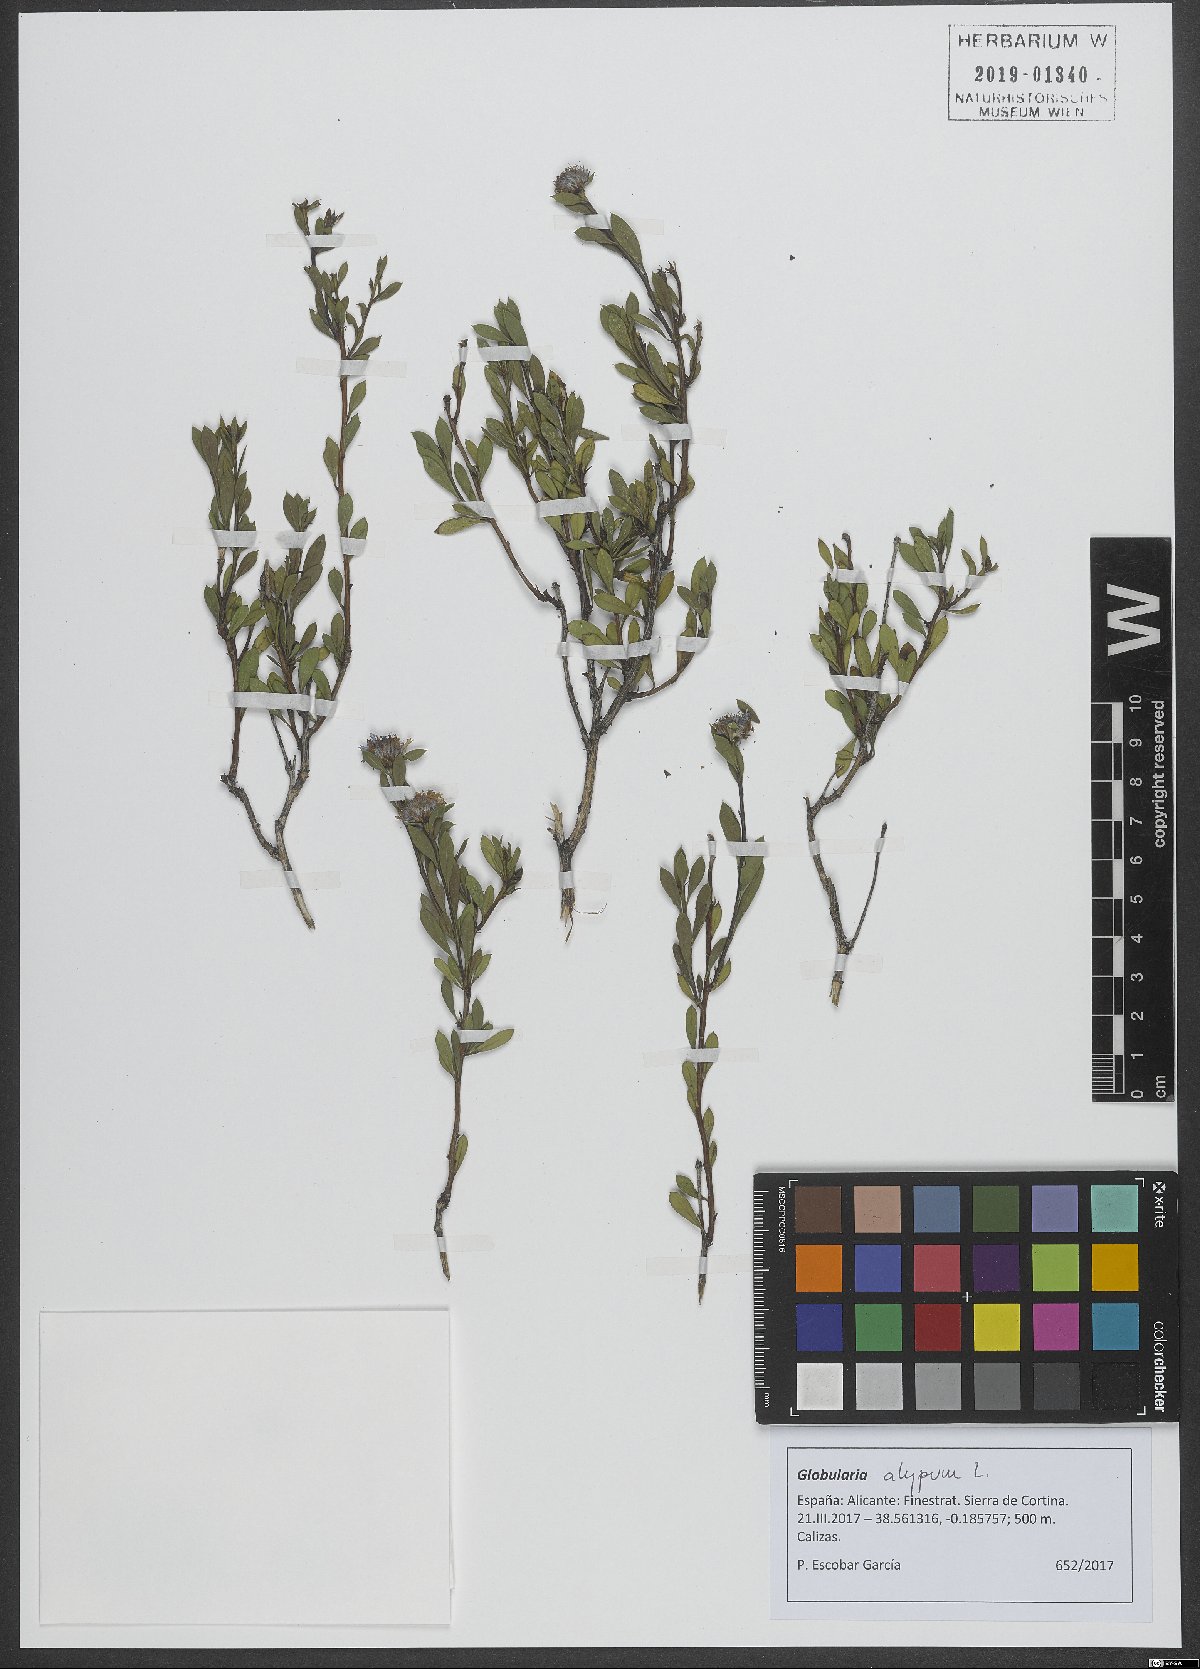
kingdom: Plantae
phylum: Tracheophyta
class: Magnoliopsida
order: Lamiales
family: Plantaginaceae
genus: Globularia
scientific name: Globularia alypum
